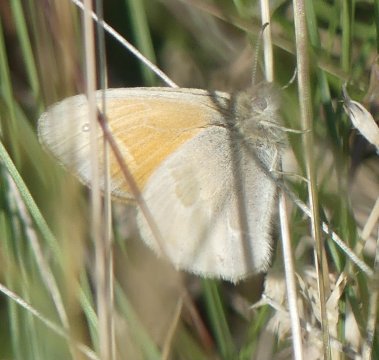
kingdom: Animalia
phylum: Arthropoda
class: Insecta
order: Lepidoptera
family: Nymphalidae
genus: Coenonympha
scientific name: Coenonympha tullia
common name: Large Heath
